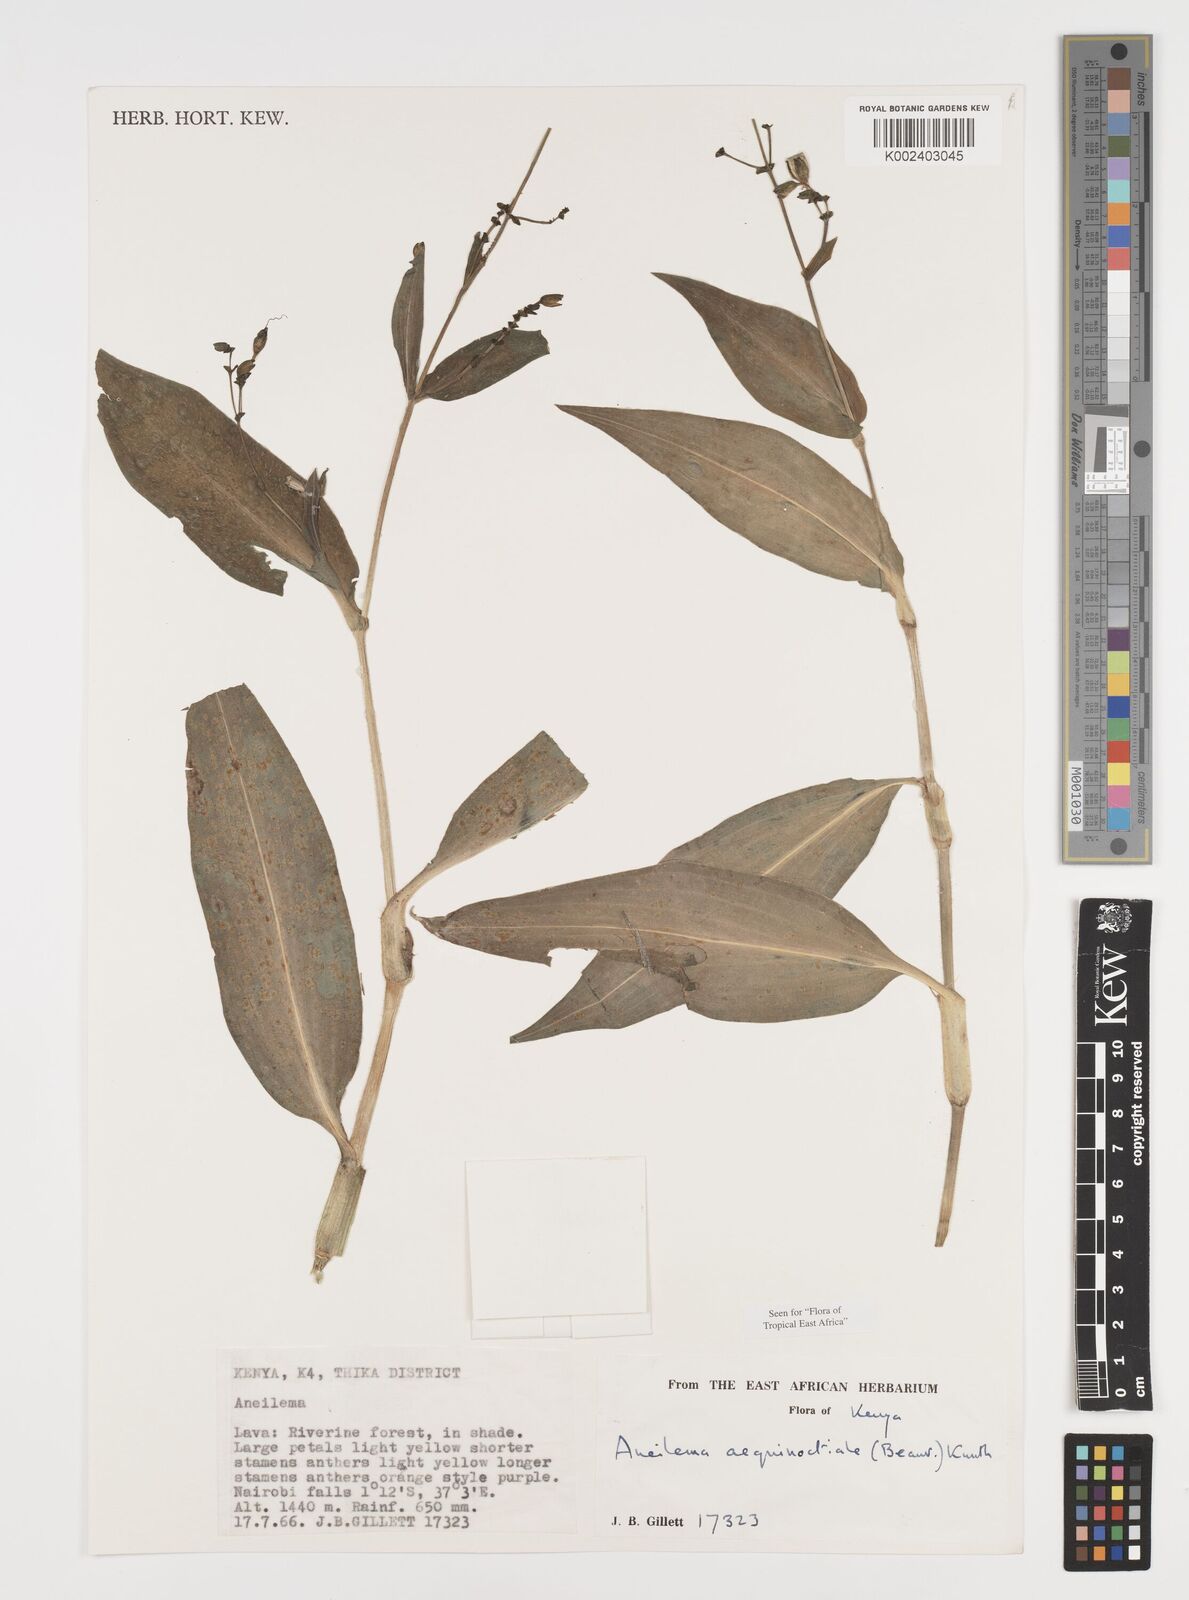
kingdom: Plantae
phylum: Tracheophyta
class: Liliopsida
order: Commelinales
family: Commelinaceae
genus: Aneilema
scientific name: Aneilema aequinoctiale
